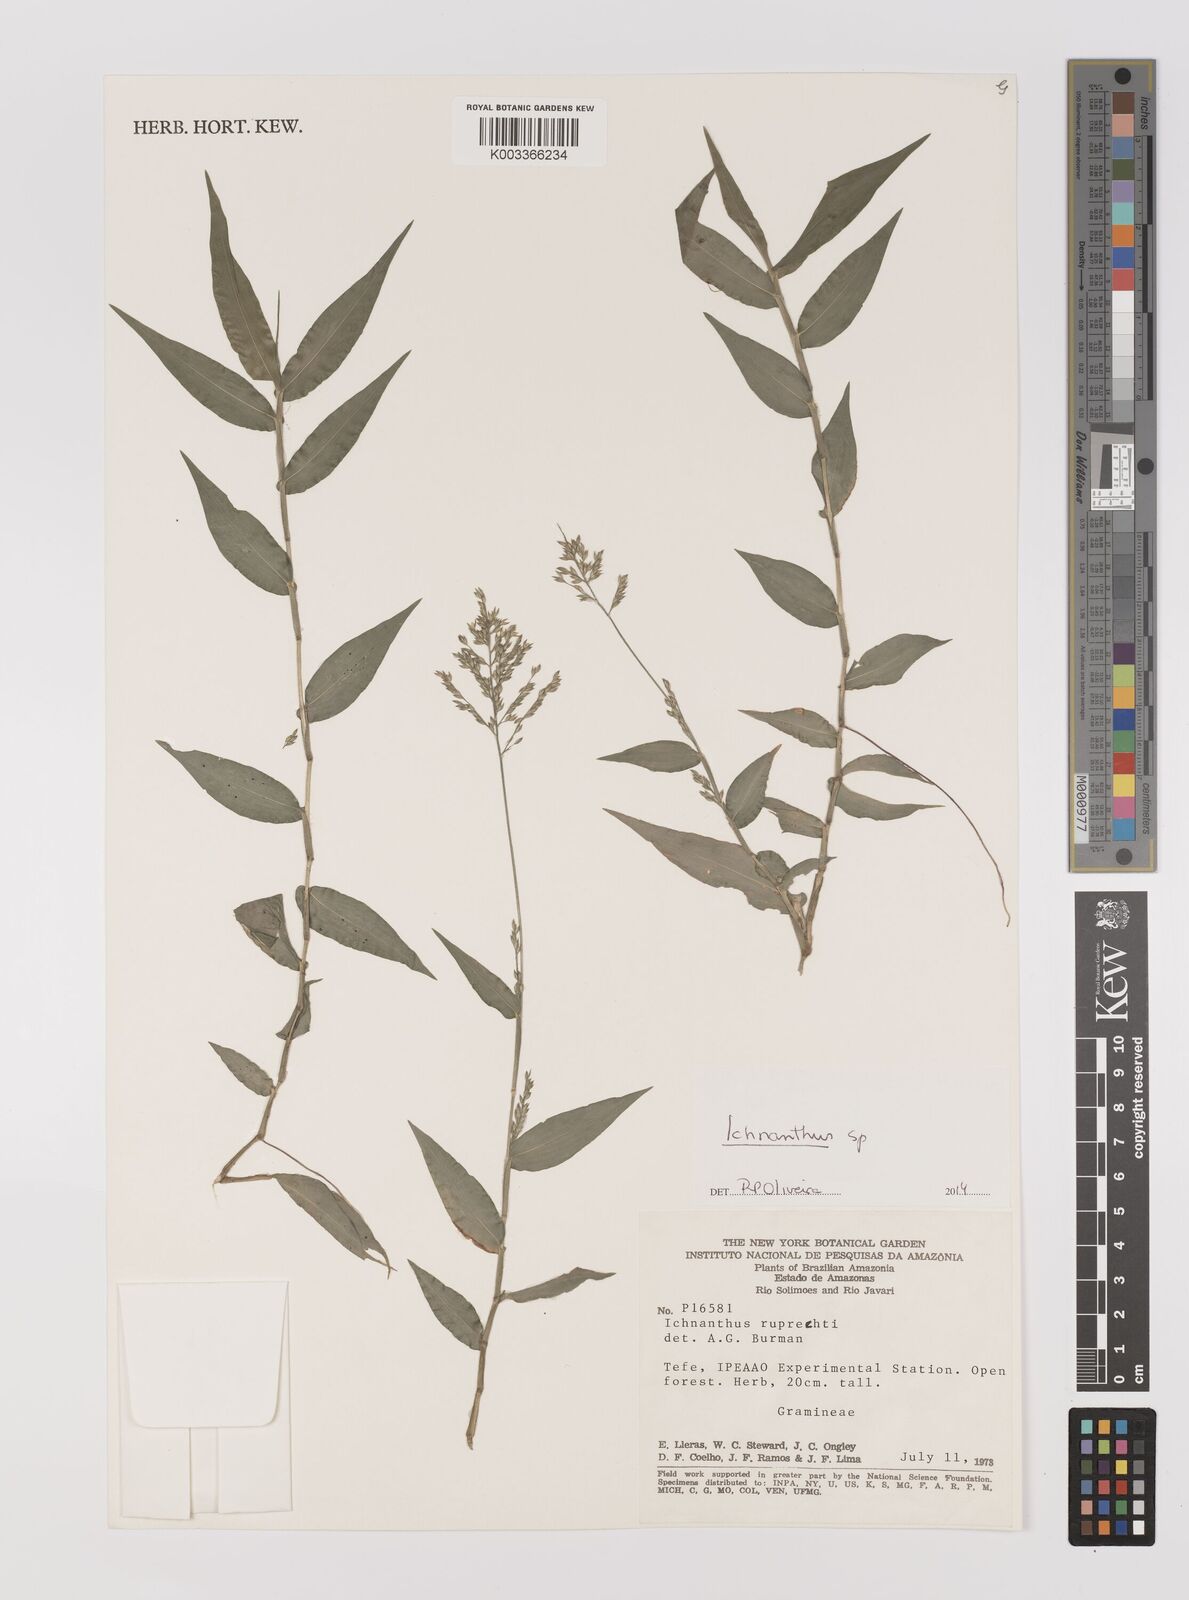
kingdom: Plantae
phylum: Tracheophyta
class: Liliopsida
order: Poales
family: Poaceae
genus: Ichnanthus
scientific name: Ichnanthus
